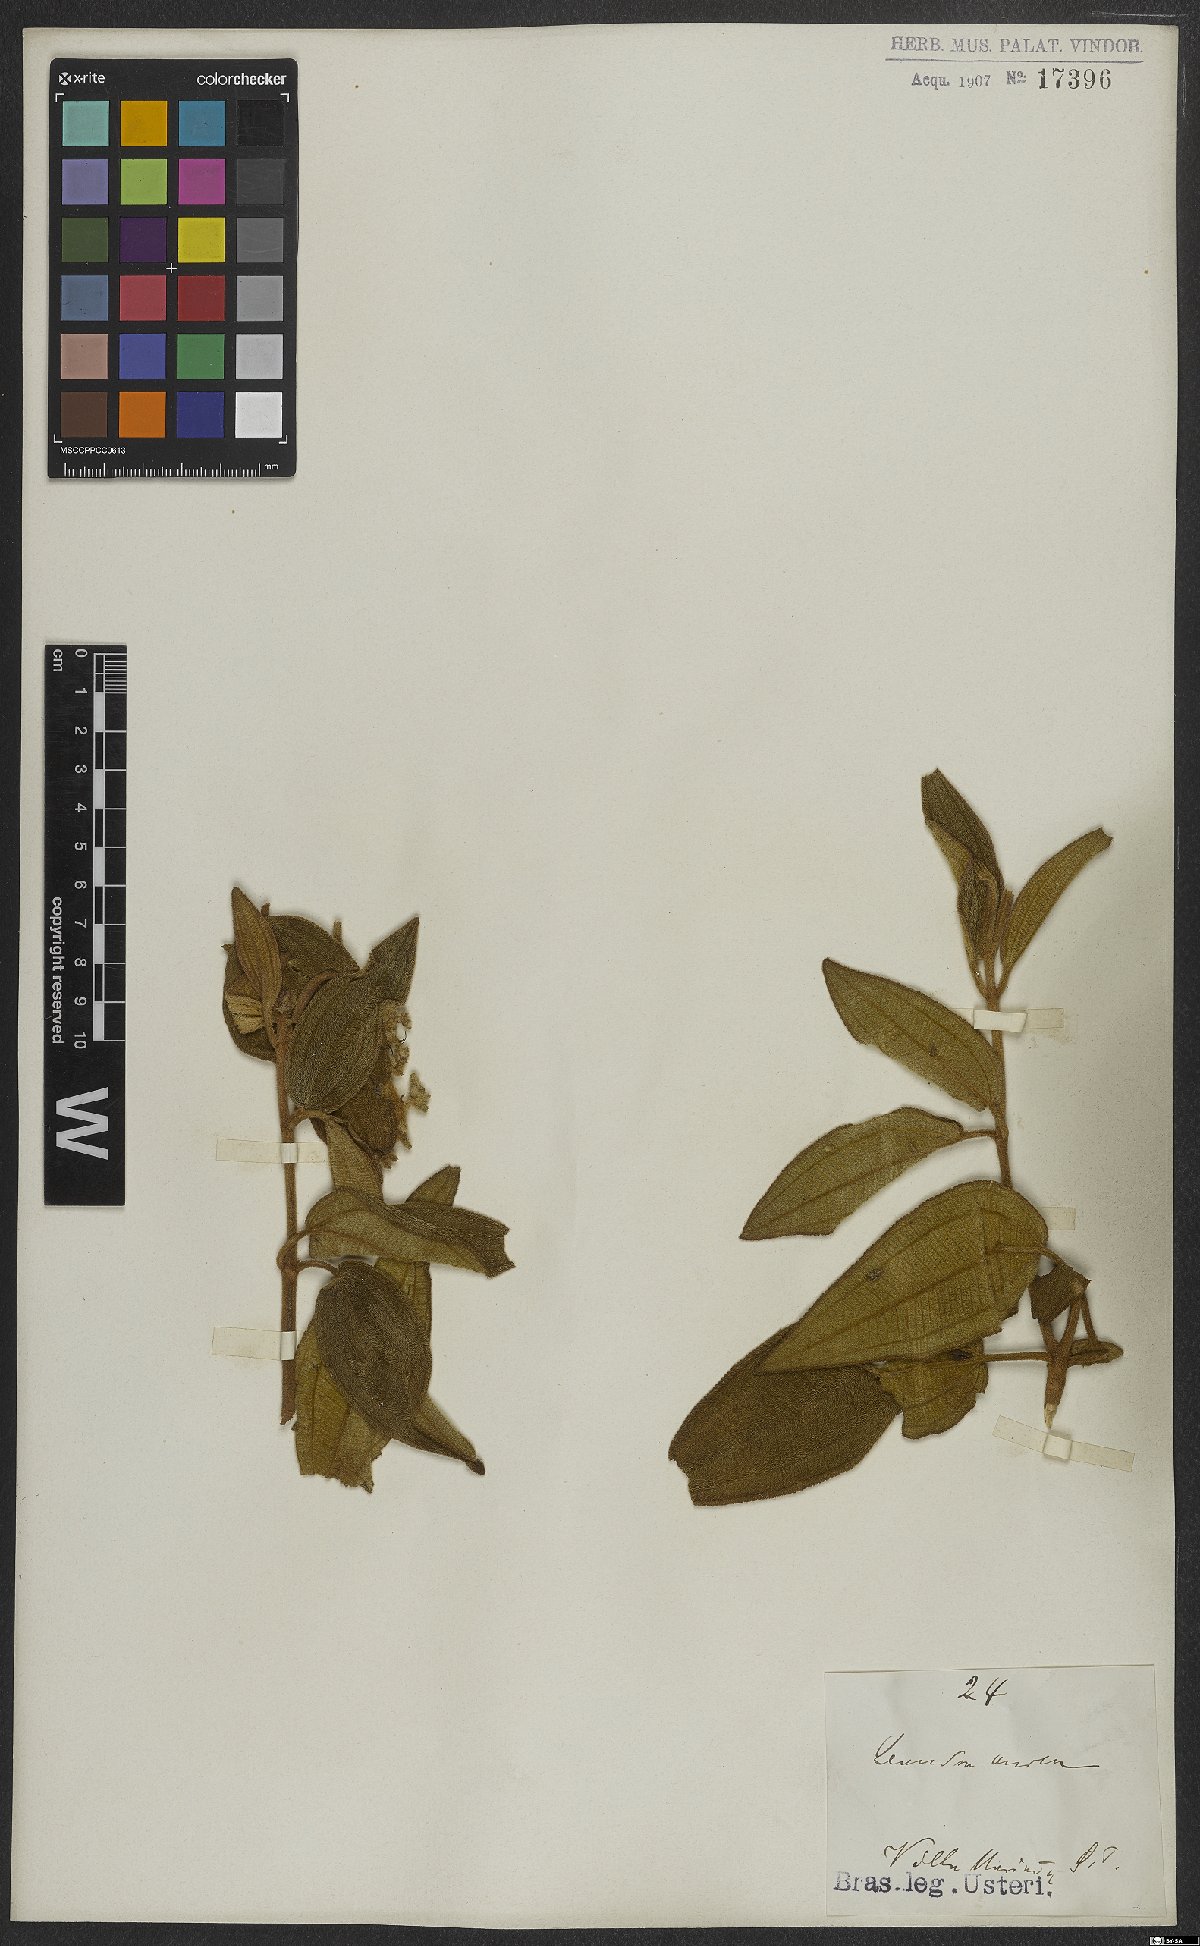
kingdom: Plantae
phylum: Tracheophyta
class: Magnoliopsida
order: Myrtales
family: Melastomataceae
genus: Miconia
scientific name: Miconia auricoma
